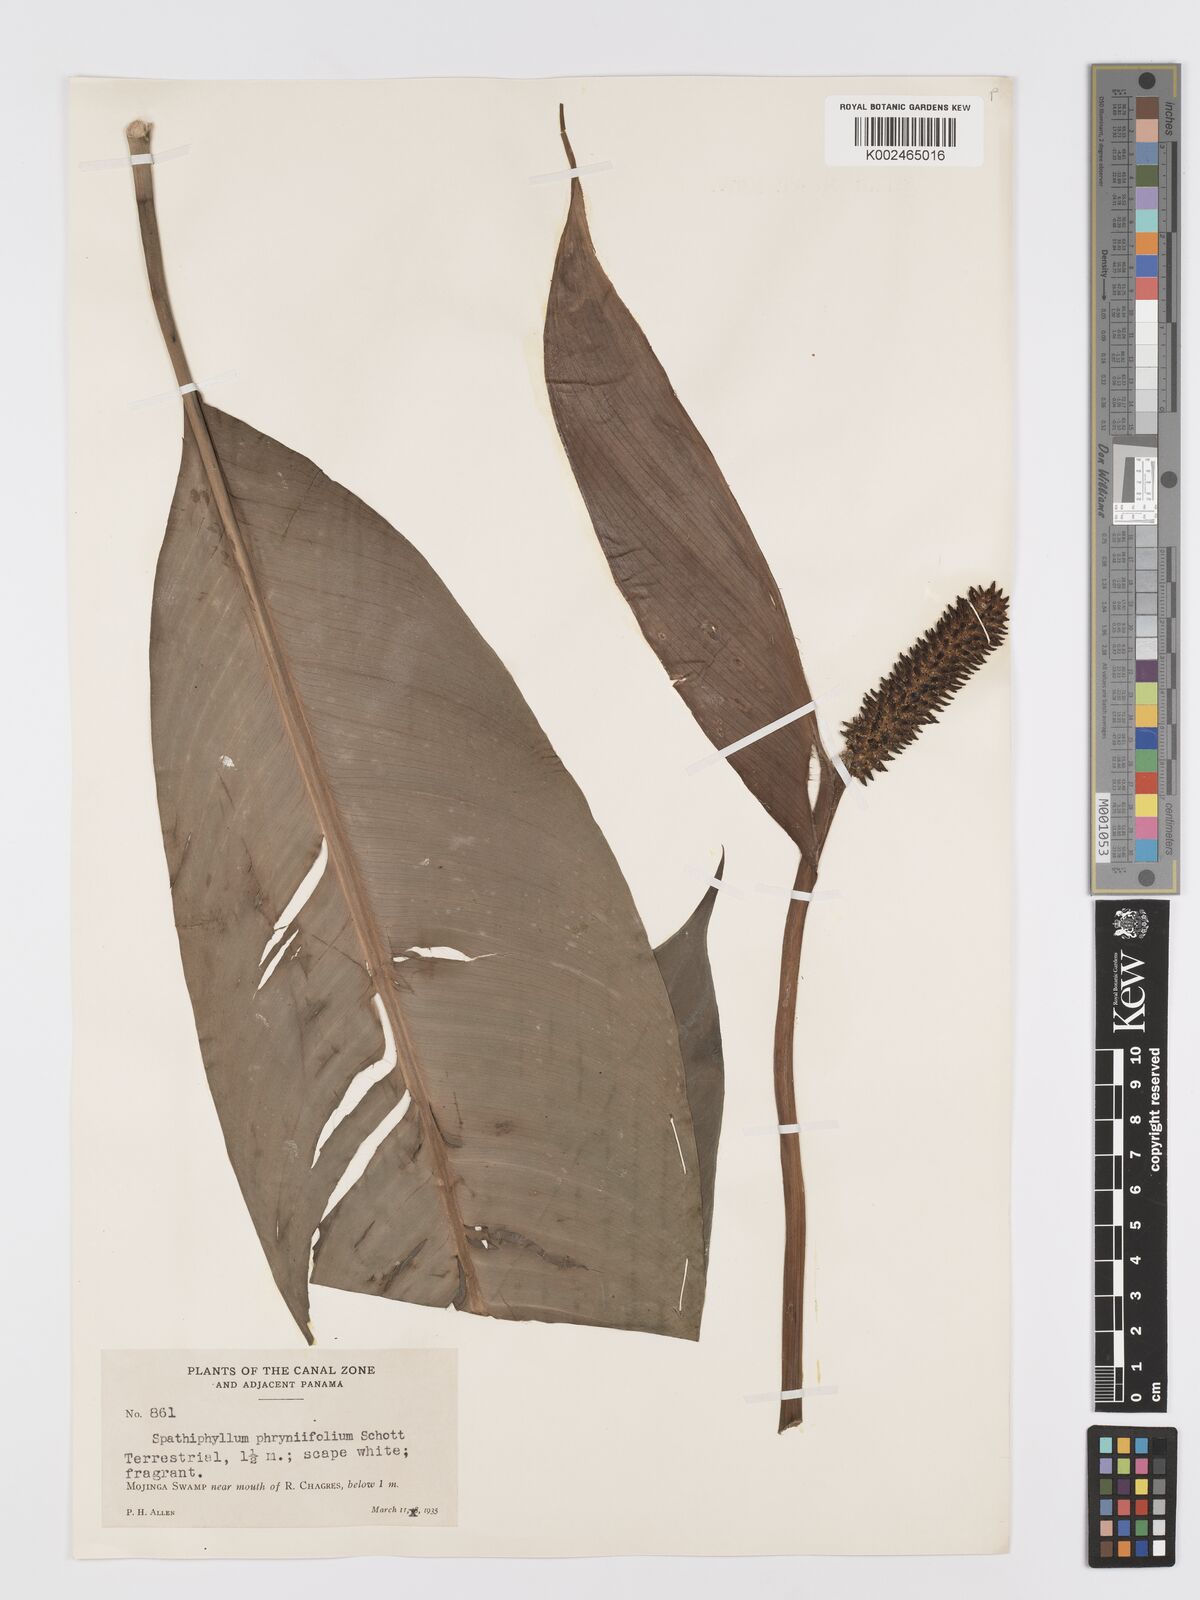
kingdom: Plantae
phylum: Tracheophyta
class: Liliopsida
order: Alismatales
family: Araceae
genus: Spathiphyllum
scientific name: Spathiphyllum friedrichsthalii
